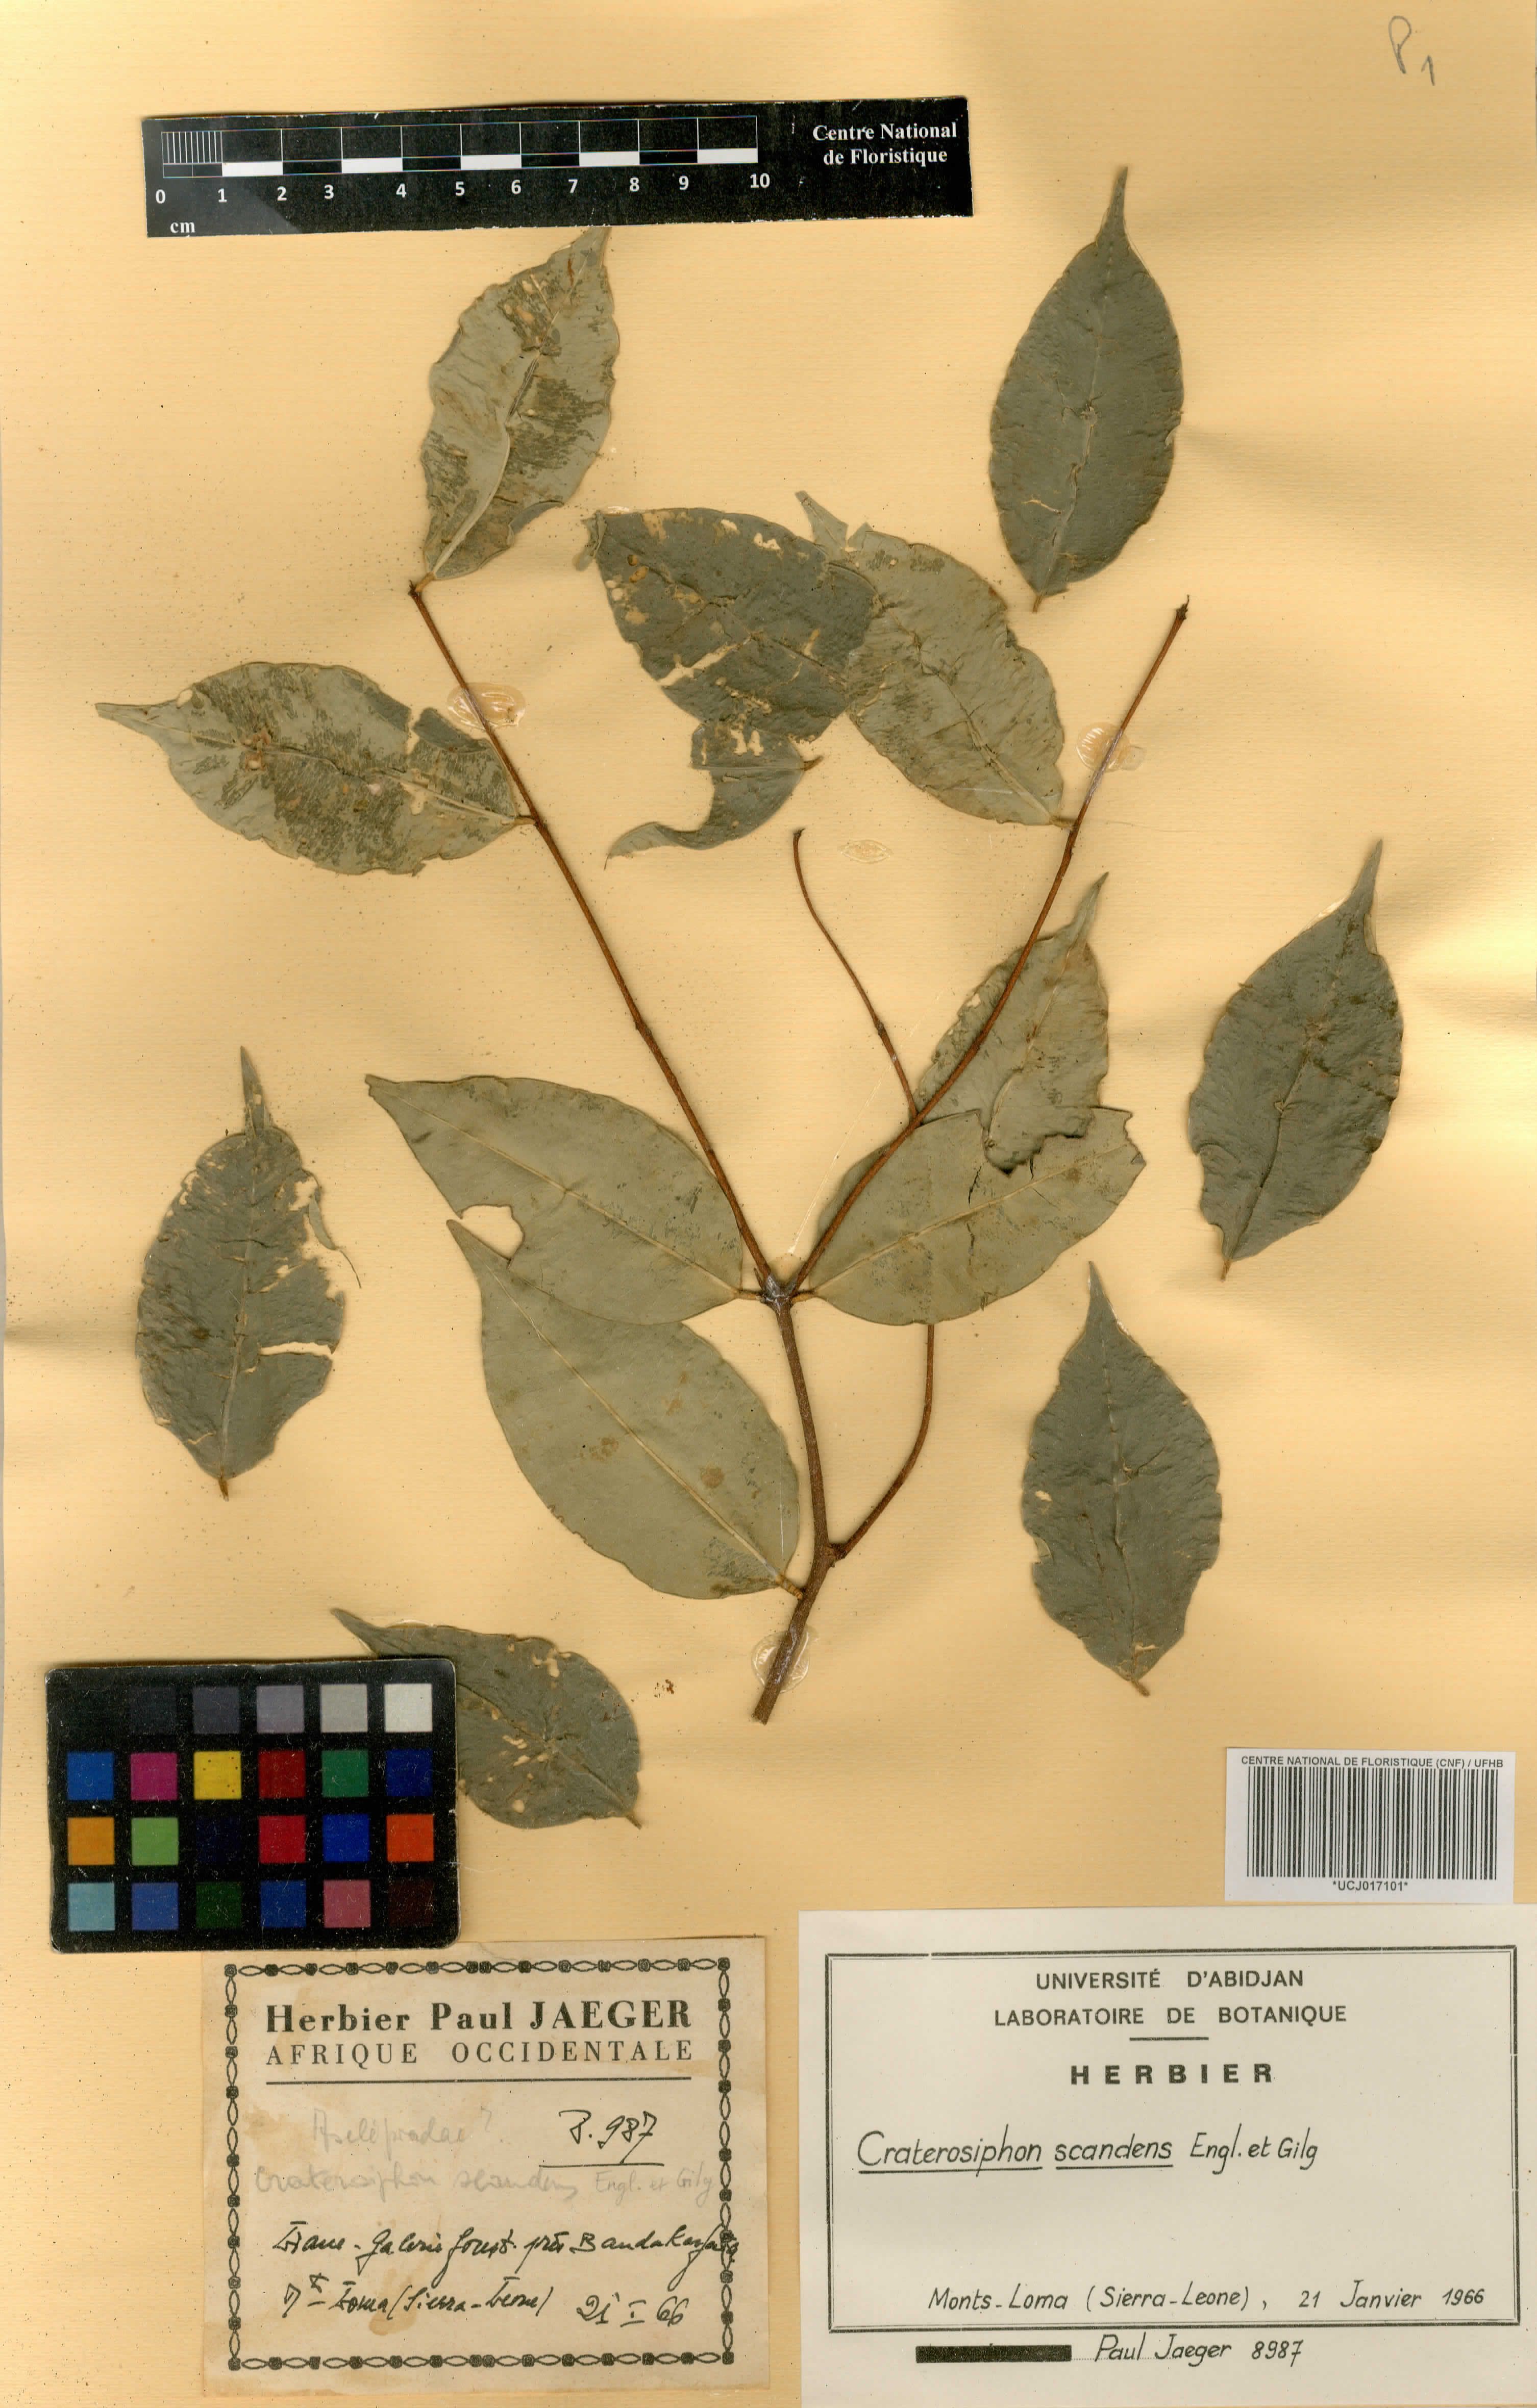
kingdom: Plantae
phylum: Tracheophyta
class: Magnoliopsida
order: Malvales
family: Thymelaeaceae
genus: Craterosiphon
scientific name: Craterosiphon scandens
